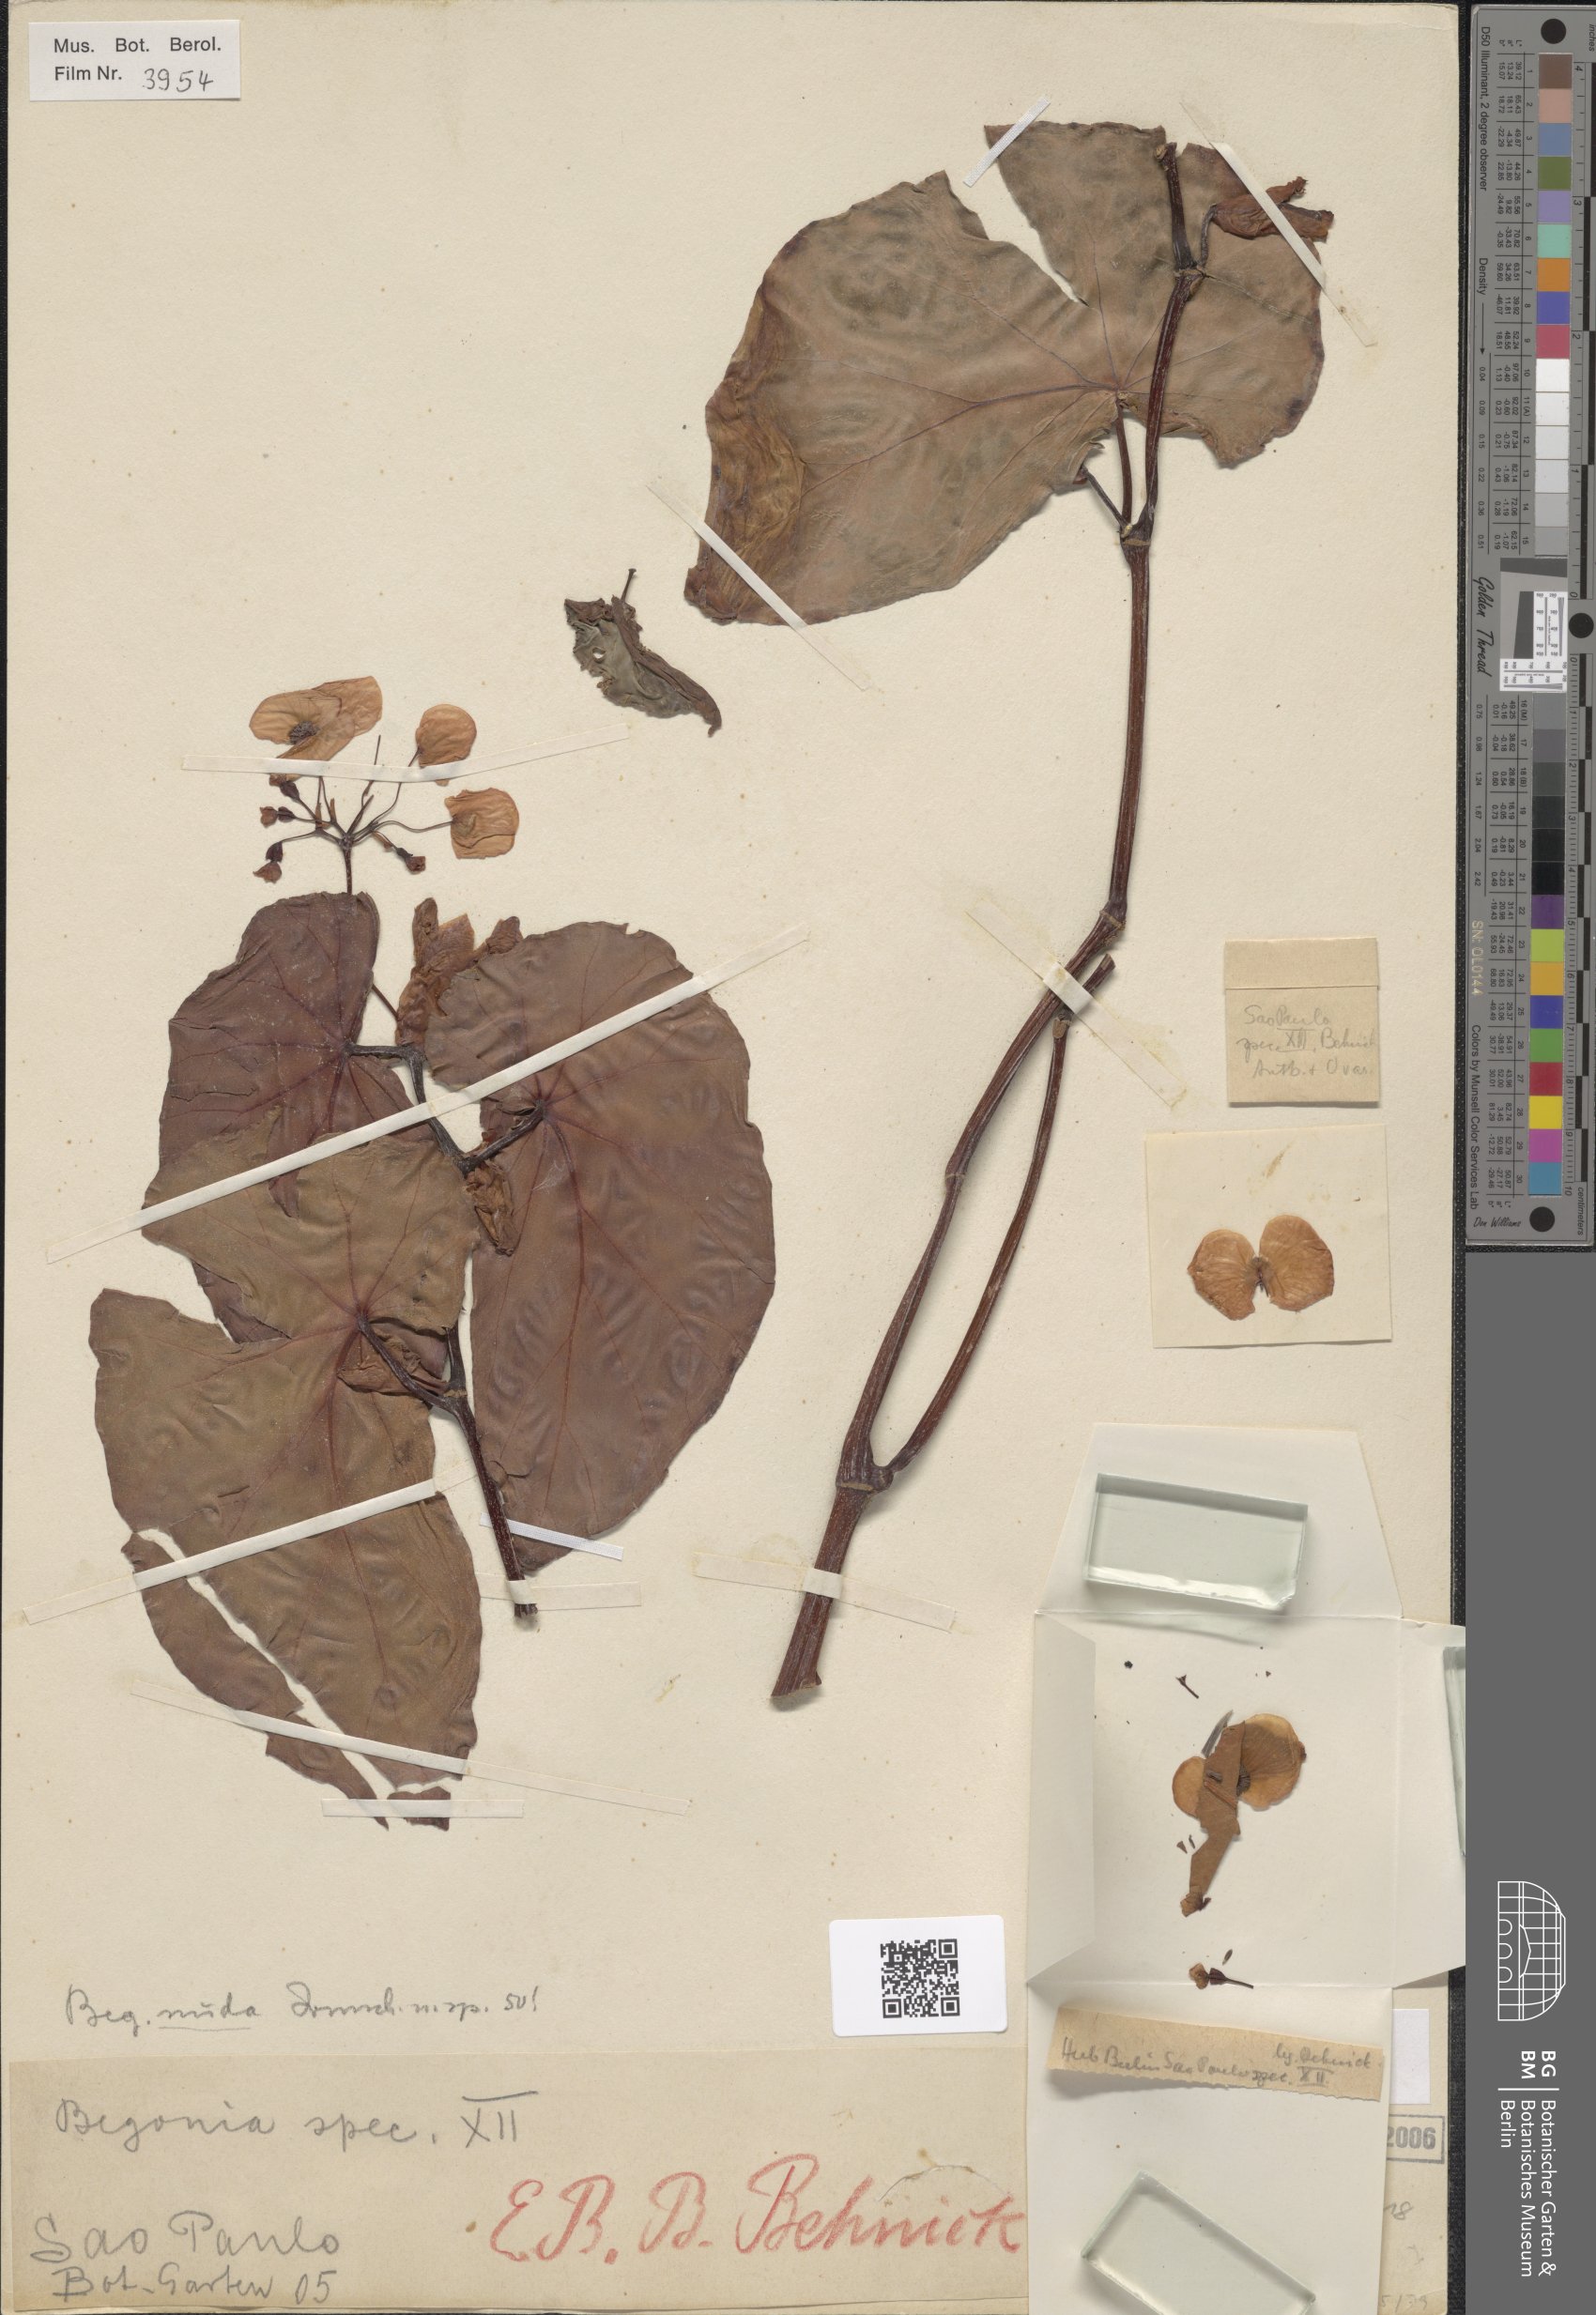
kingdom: Plantae
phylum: Tracheophyta
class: Magnoliopsida
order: Cucurbitales
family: Begoniaceae
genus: Begonia
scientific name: Begonia nuda
